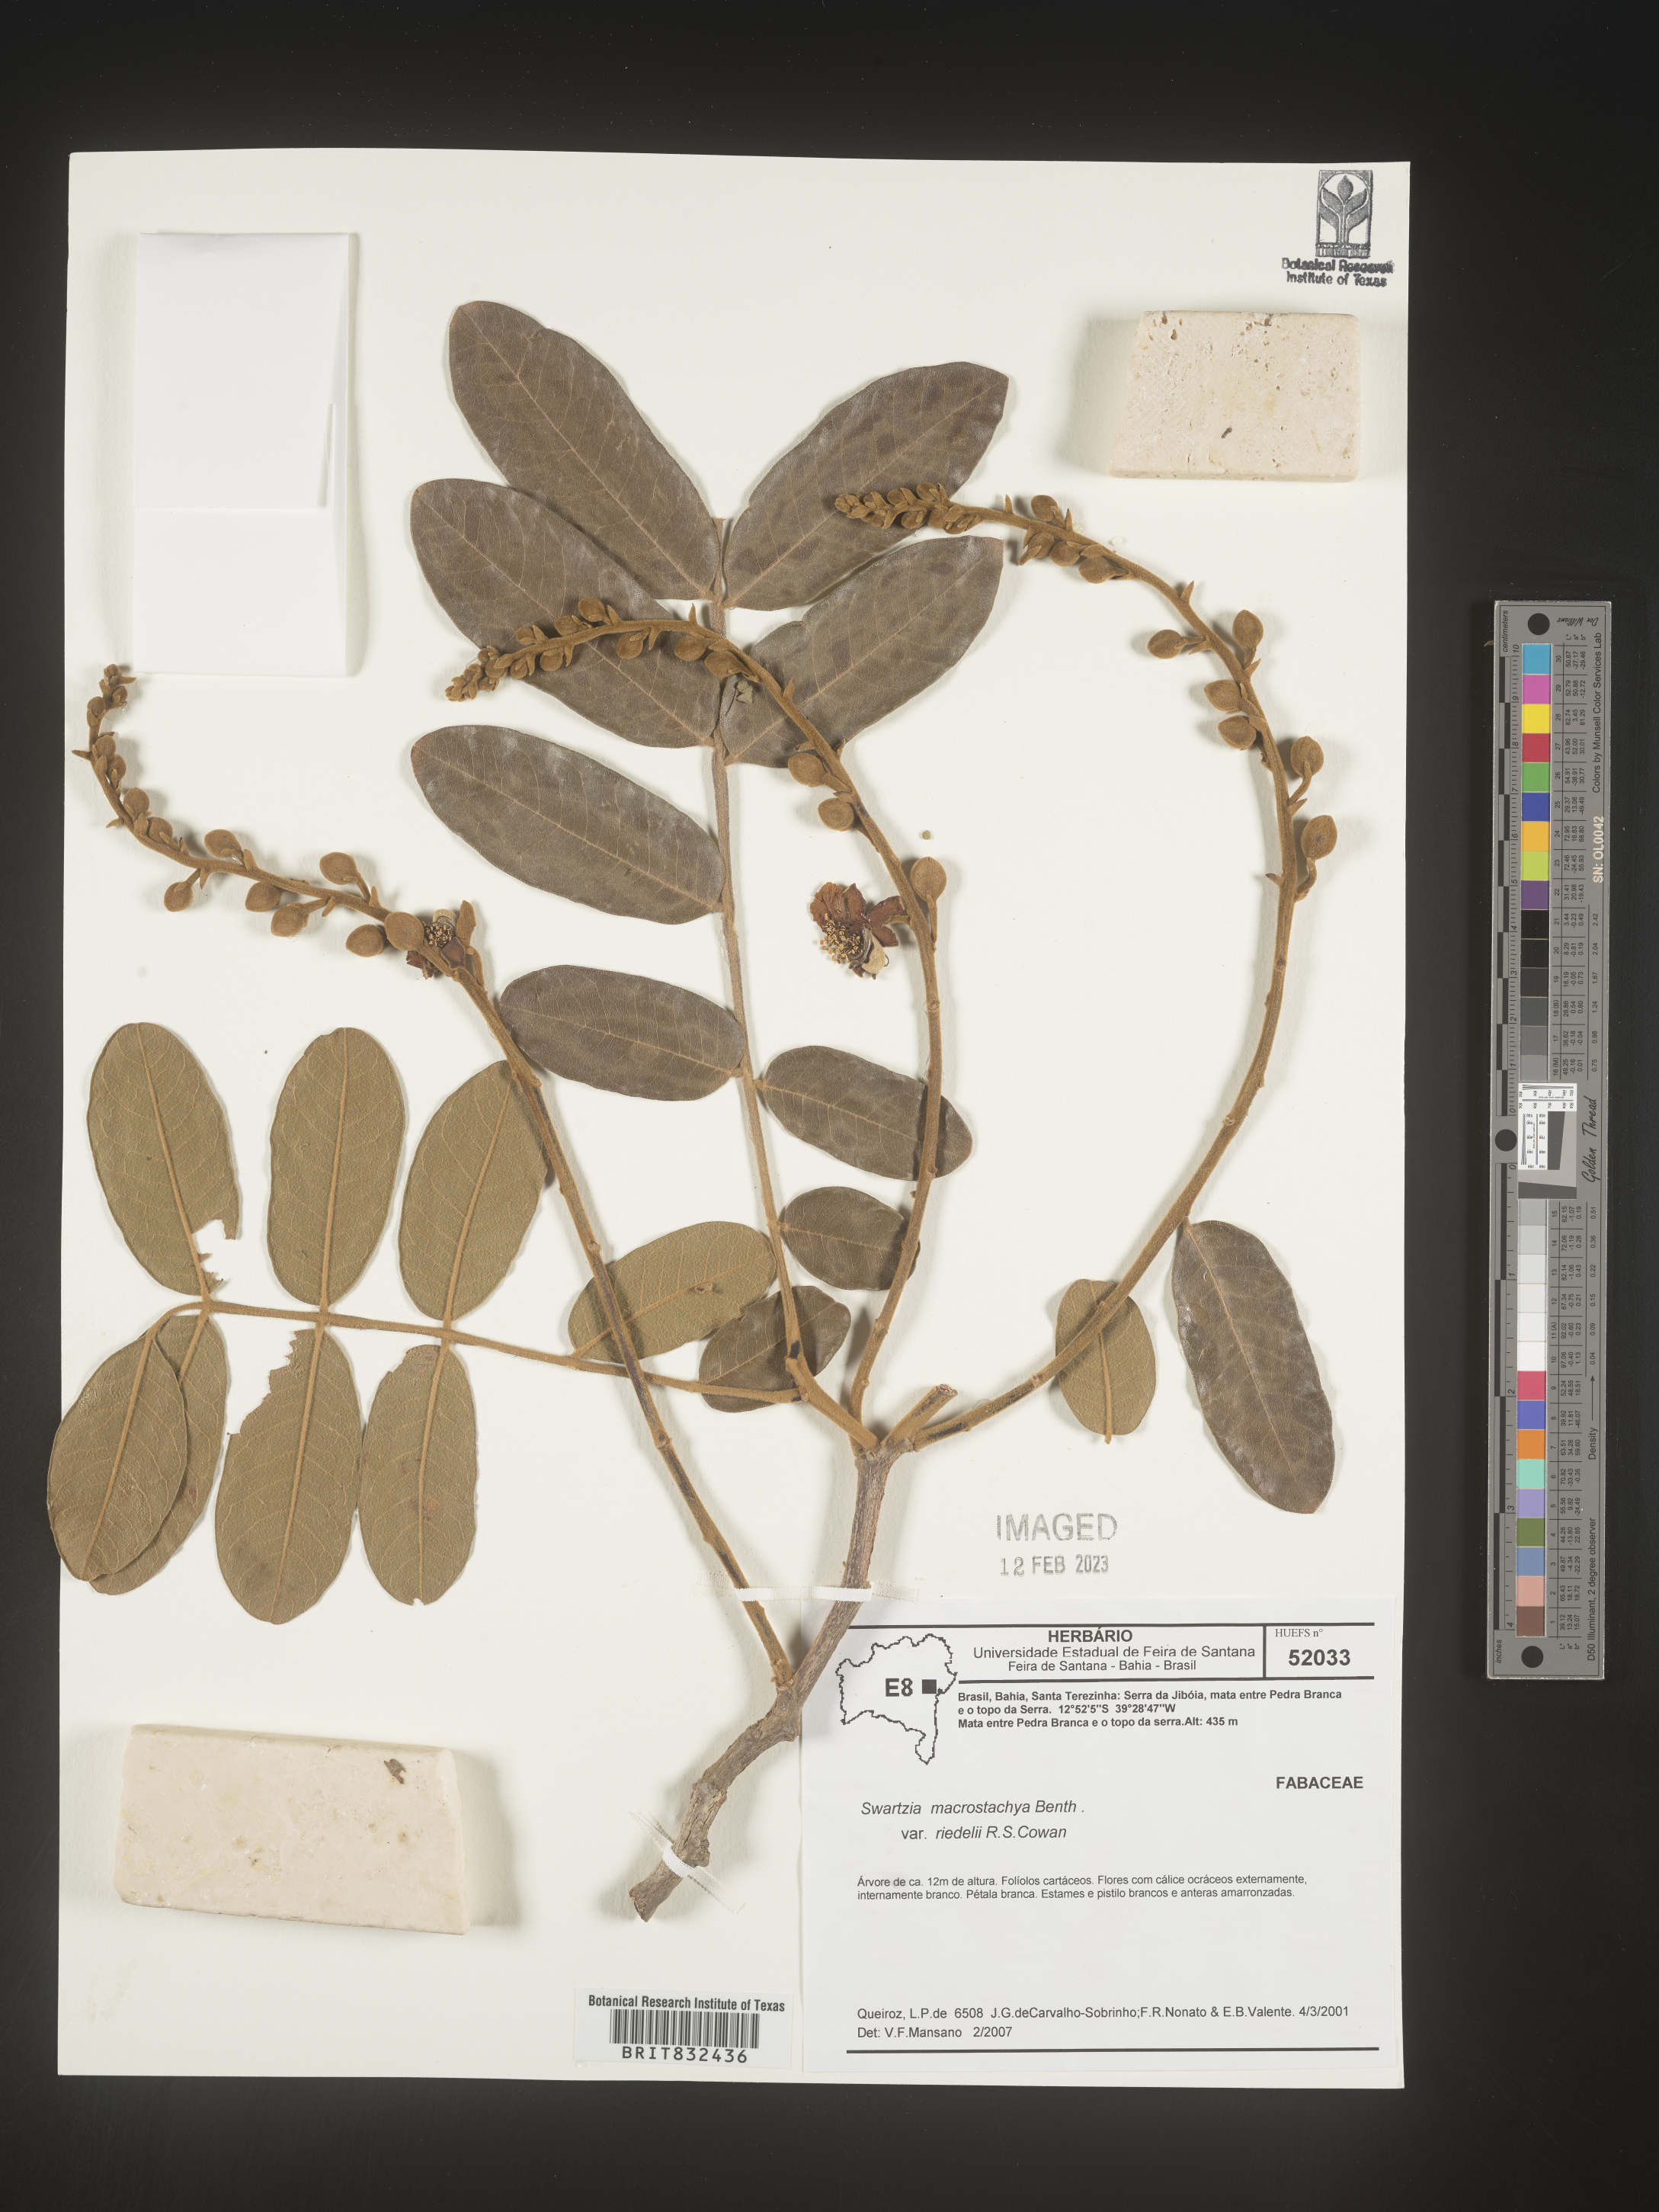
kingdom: Plantae
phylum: Tracheophyta
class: Magnoliopsida
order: Fabales
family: Fabaceae
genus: Swartzia
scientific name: Swartzia
